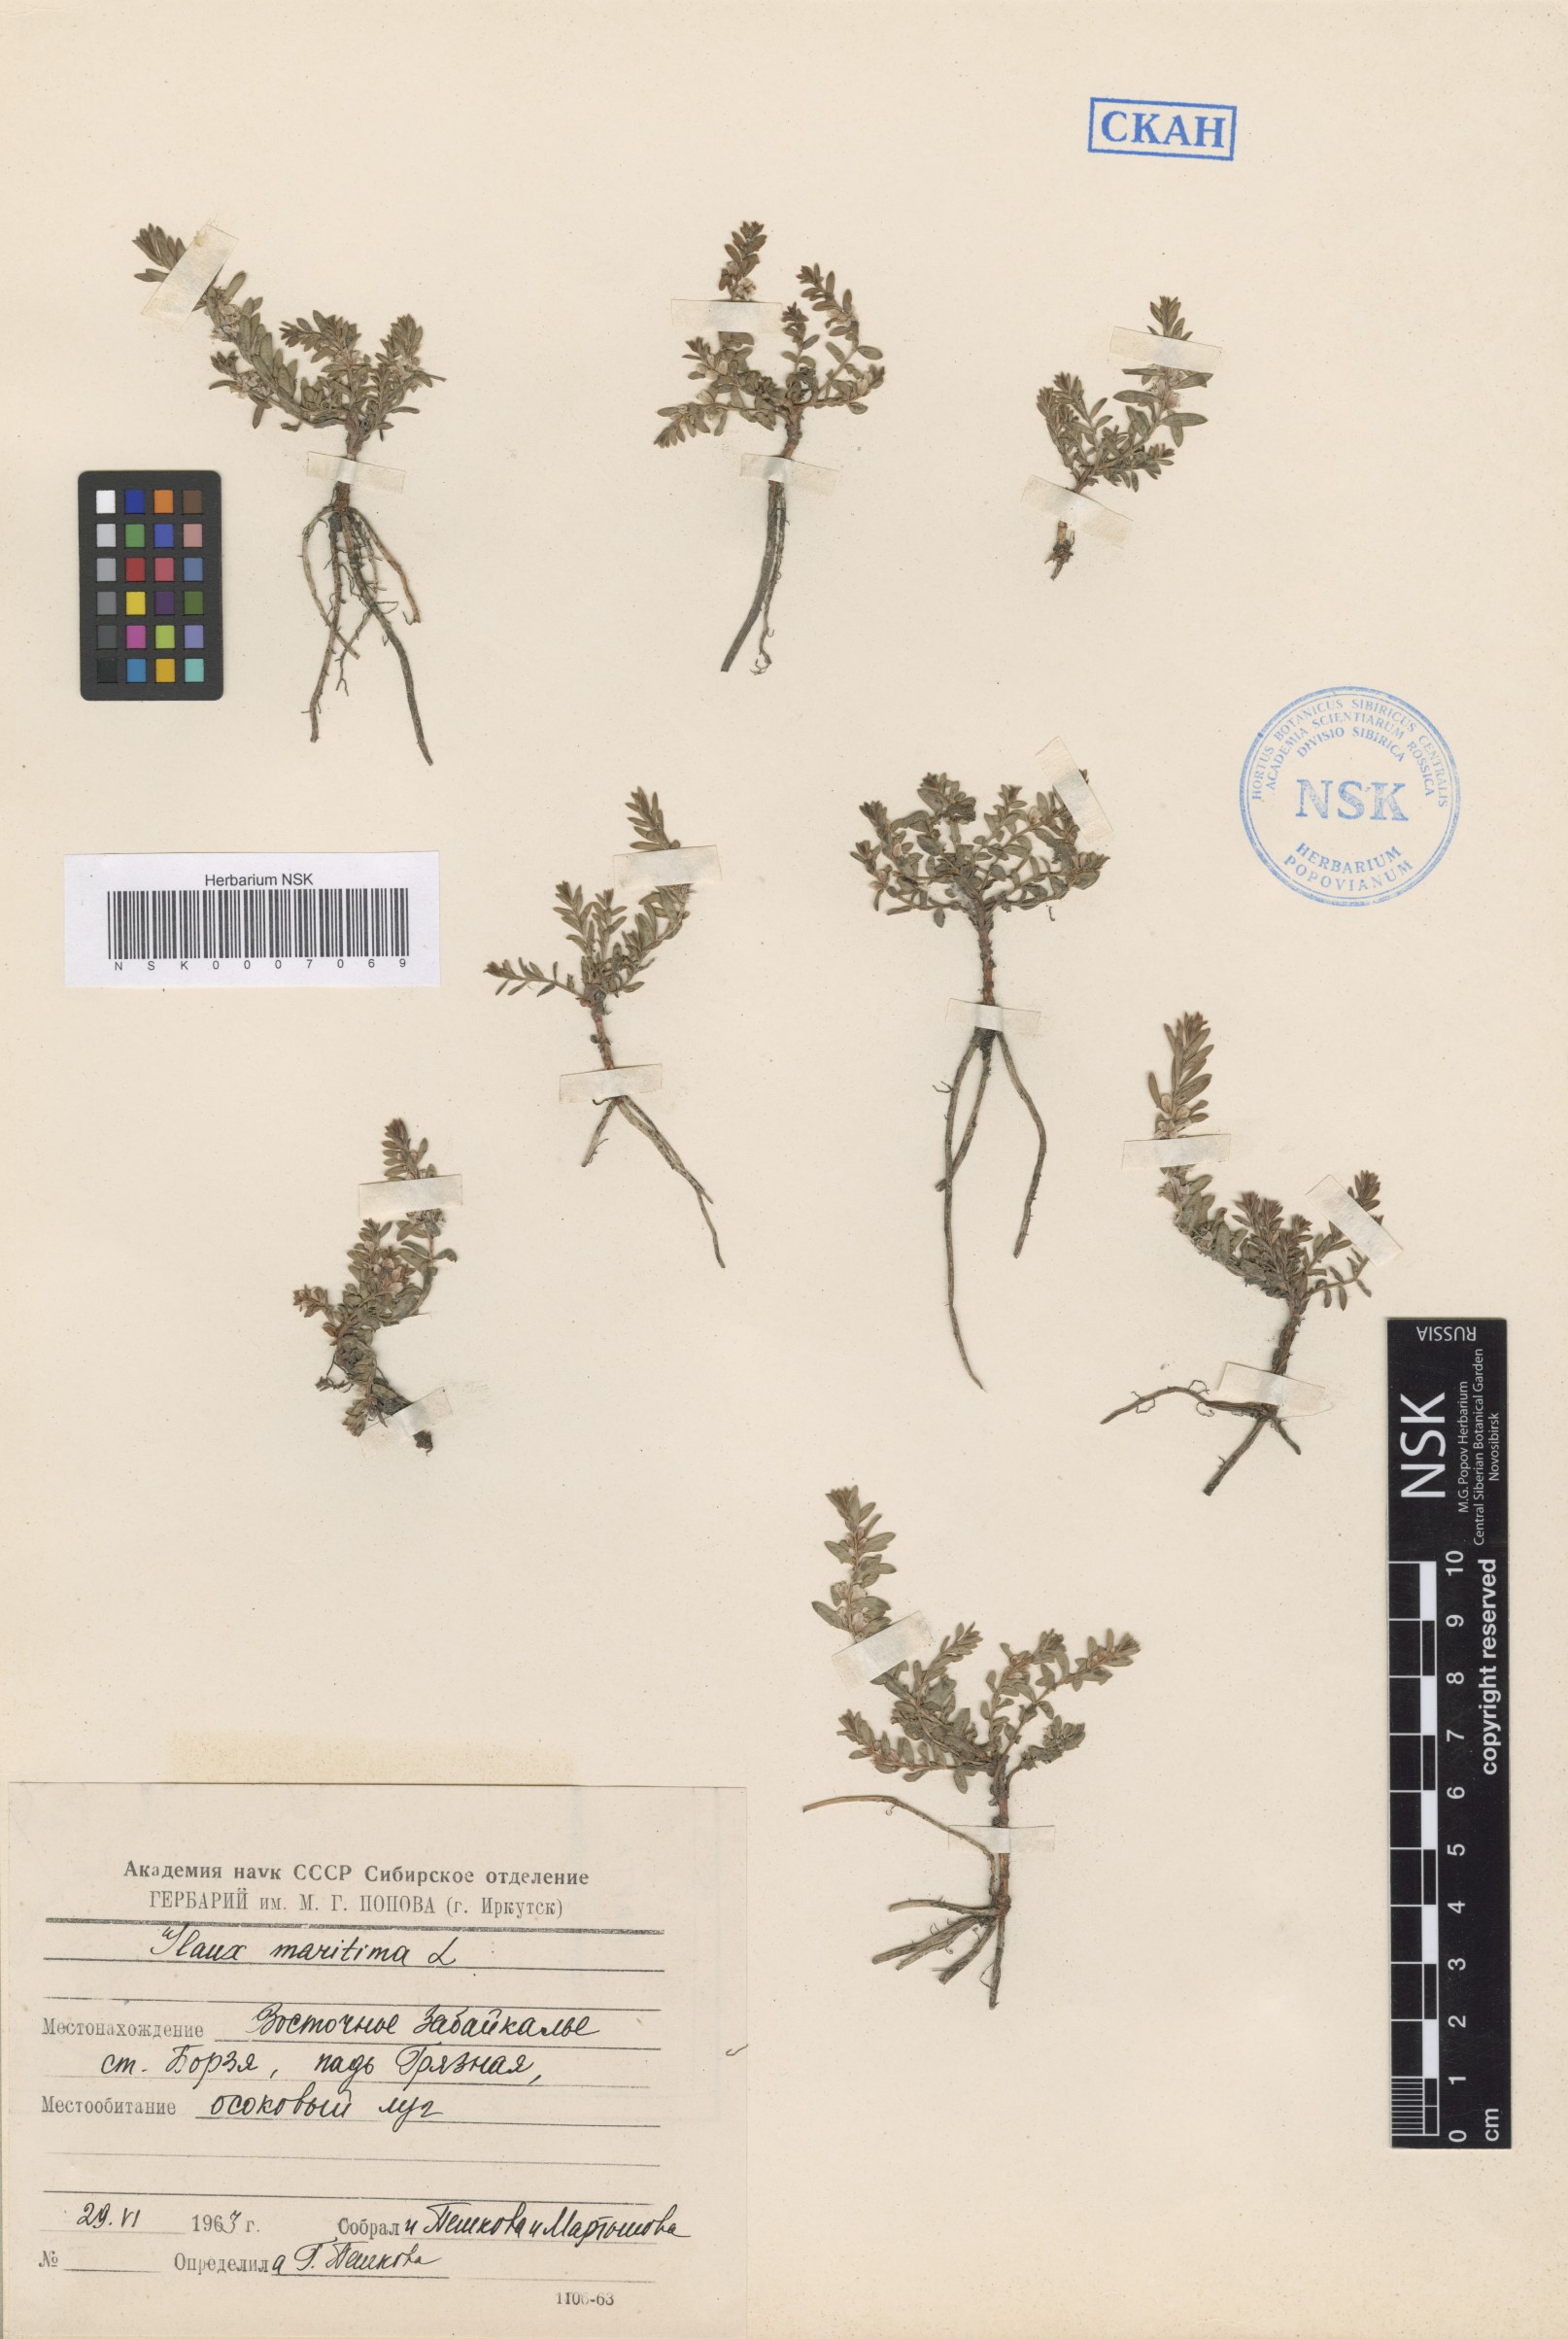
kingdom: Plantae
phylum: Tracheophyta
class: Magnoliopsida
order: Ericales
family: Primulaceae
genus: Lysimachia
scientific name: Lysimachia maritima
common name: Sea milkwort
